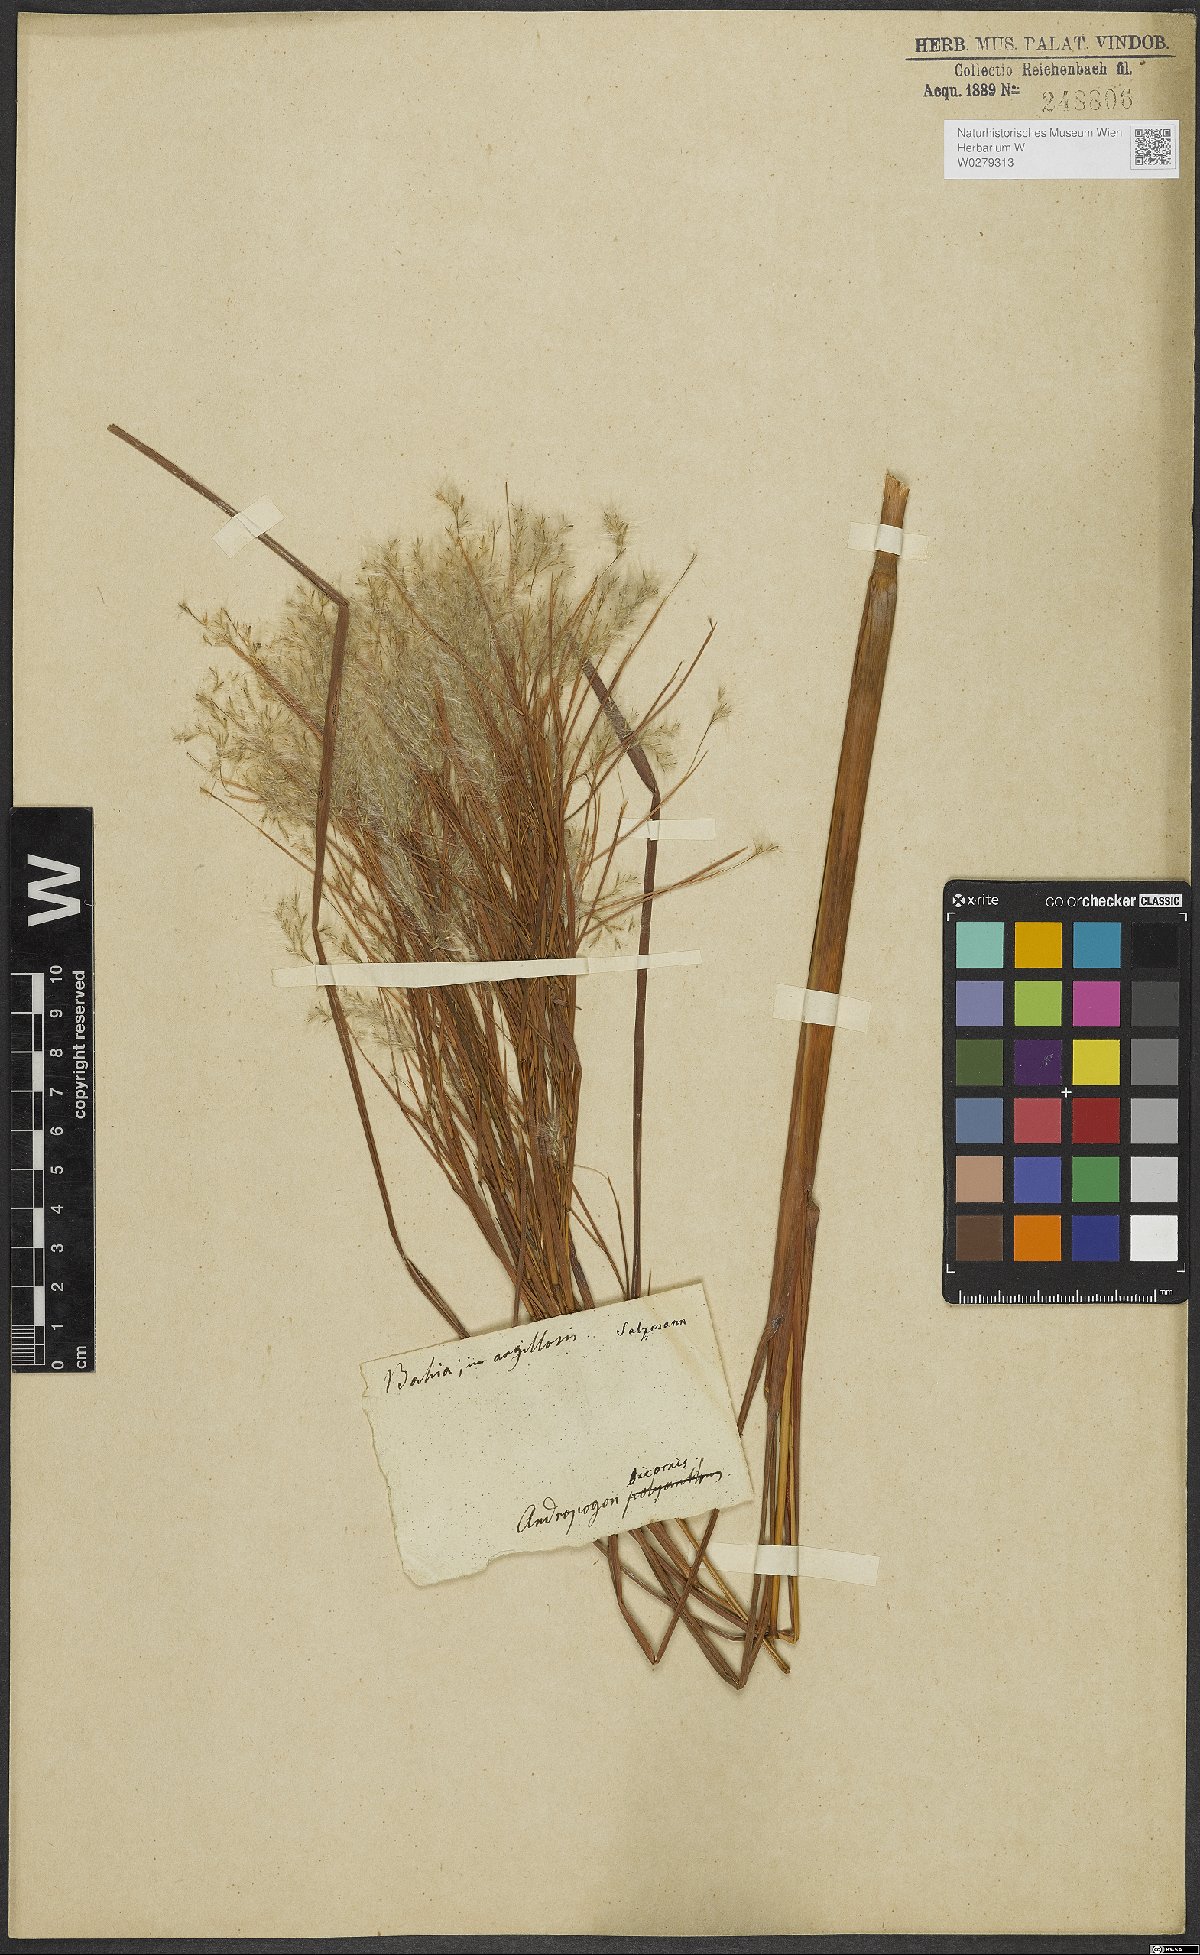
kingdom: Plantae
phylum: Tracheophyta
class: Liliopsida
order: Poales
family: Poaceae
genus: Andropogon
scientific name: Andropogon bicornis
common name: West indian foxtail grass
